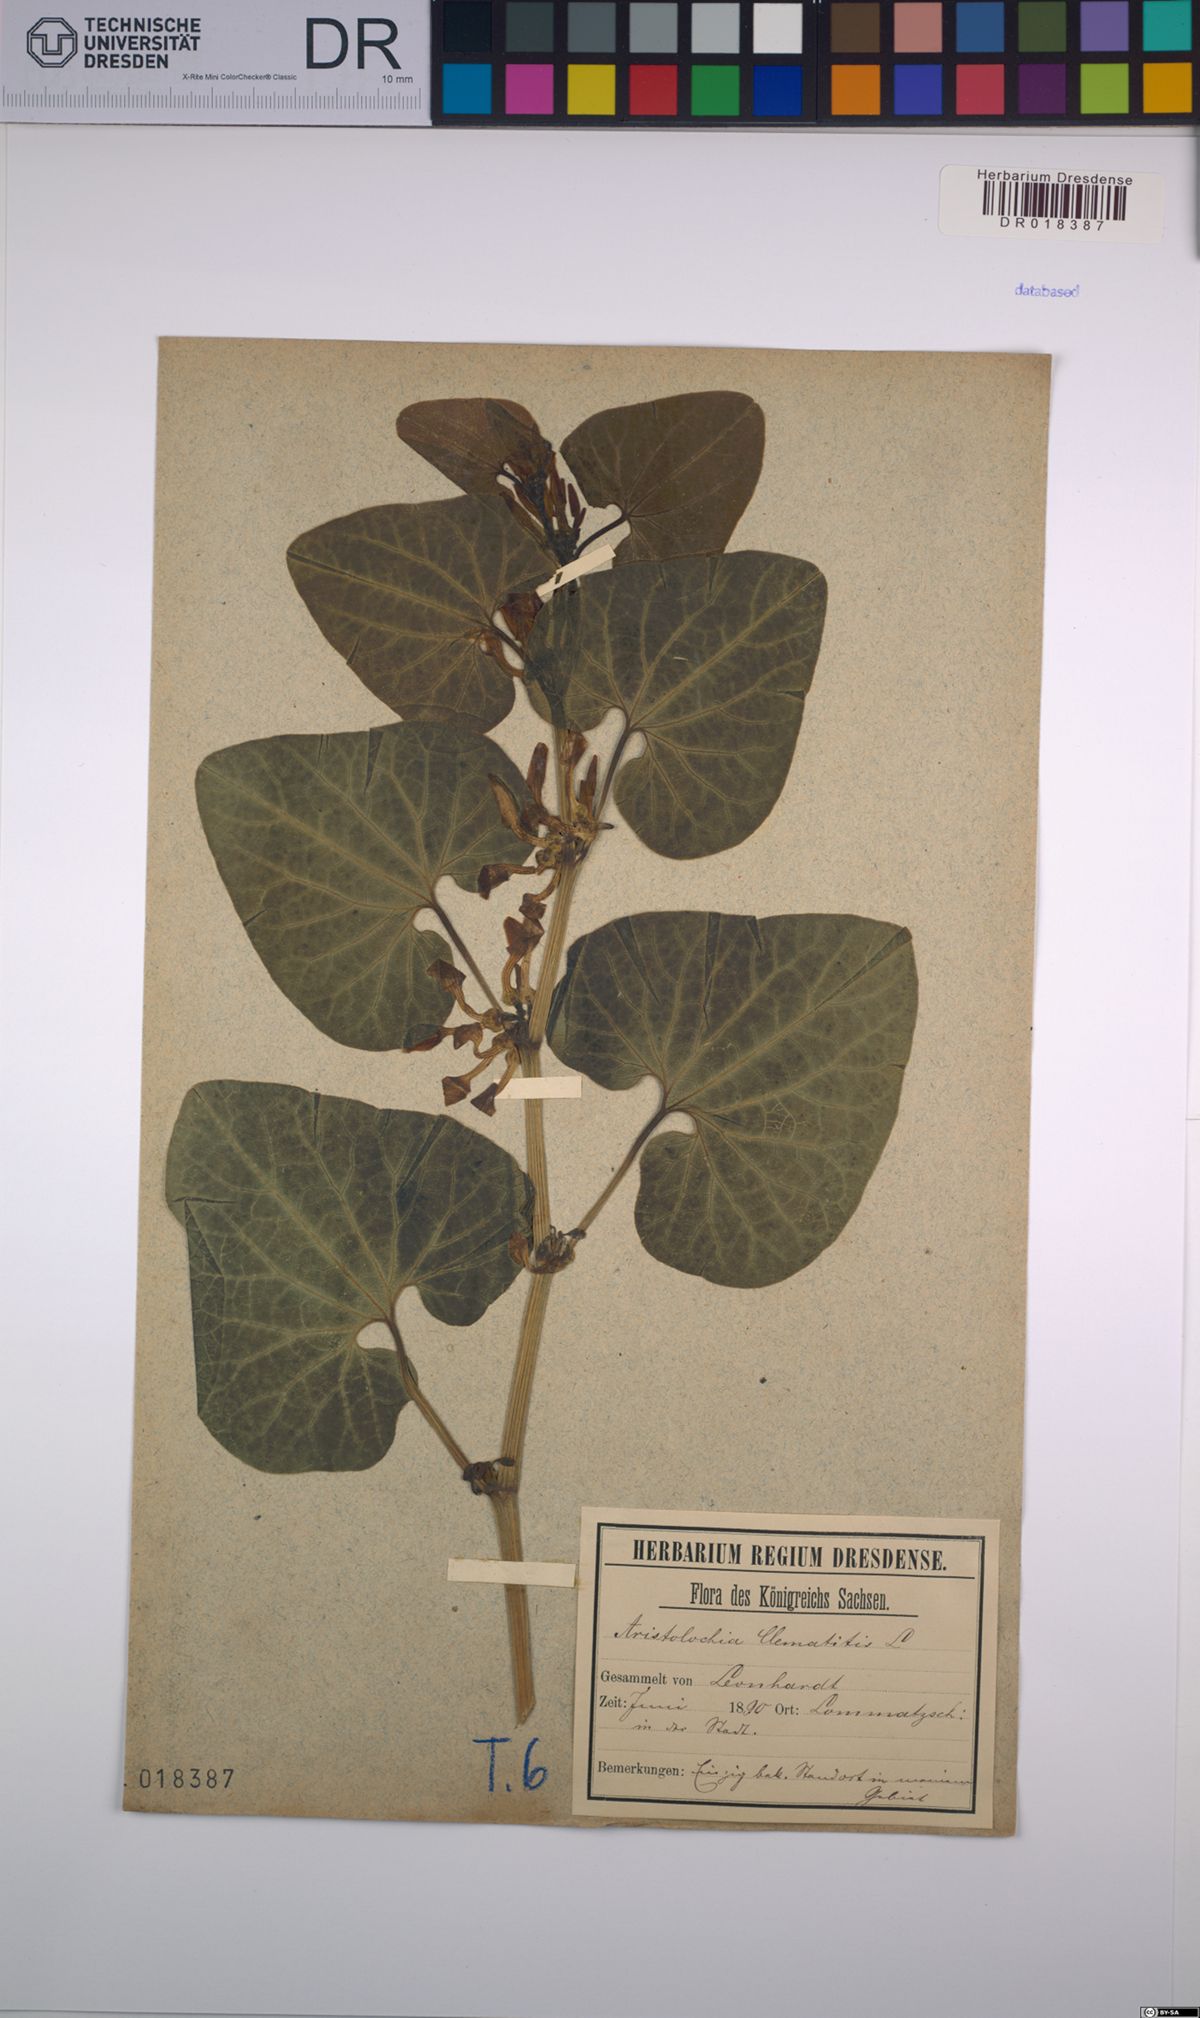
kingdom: Plantae
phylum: Tracheophyta
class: Magnoliopsida
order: Piperales
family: Aristolochiaceae
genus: Aristolochia
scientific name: Aristolochia clematitis
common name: Birthwort
